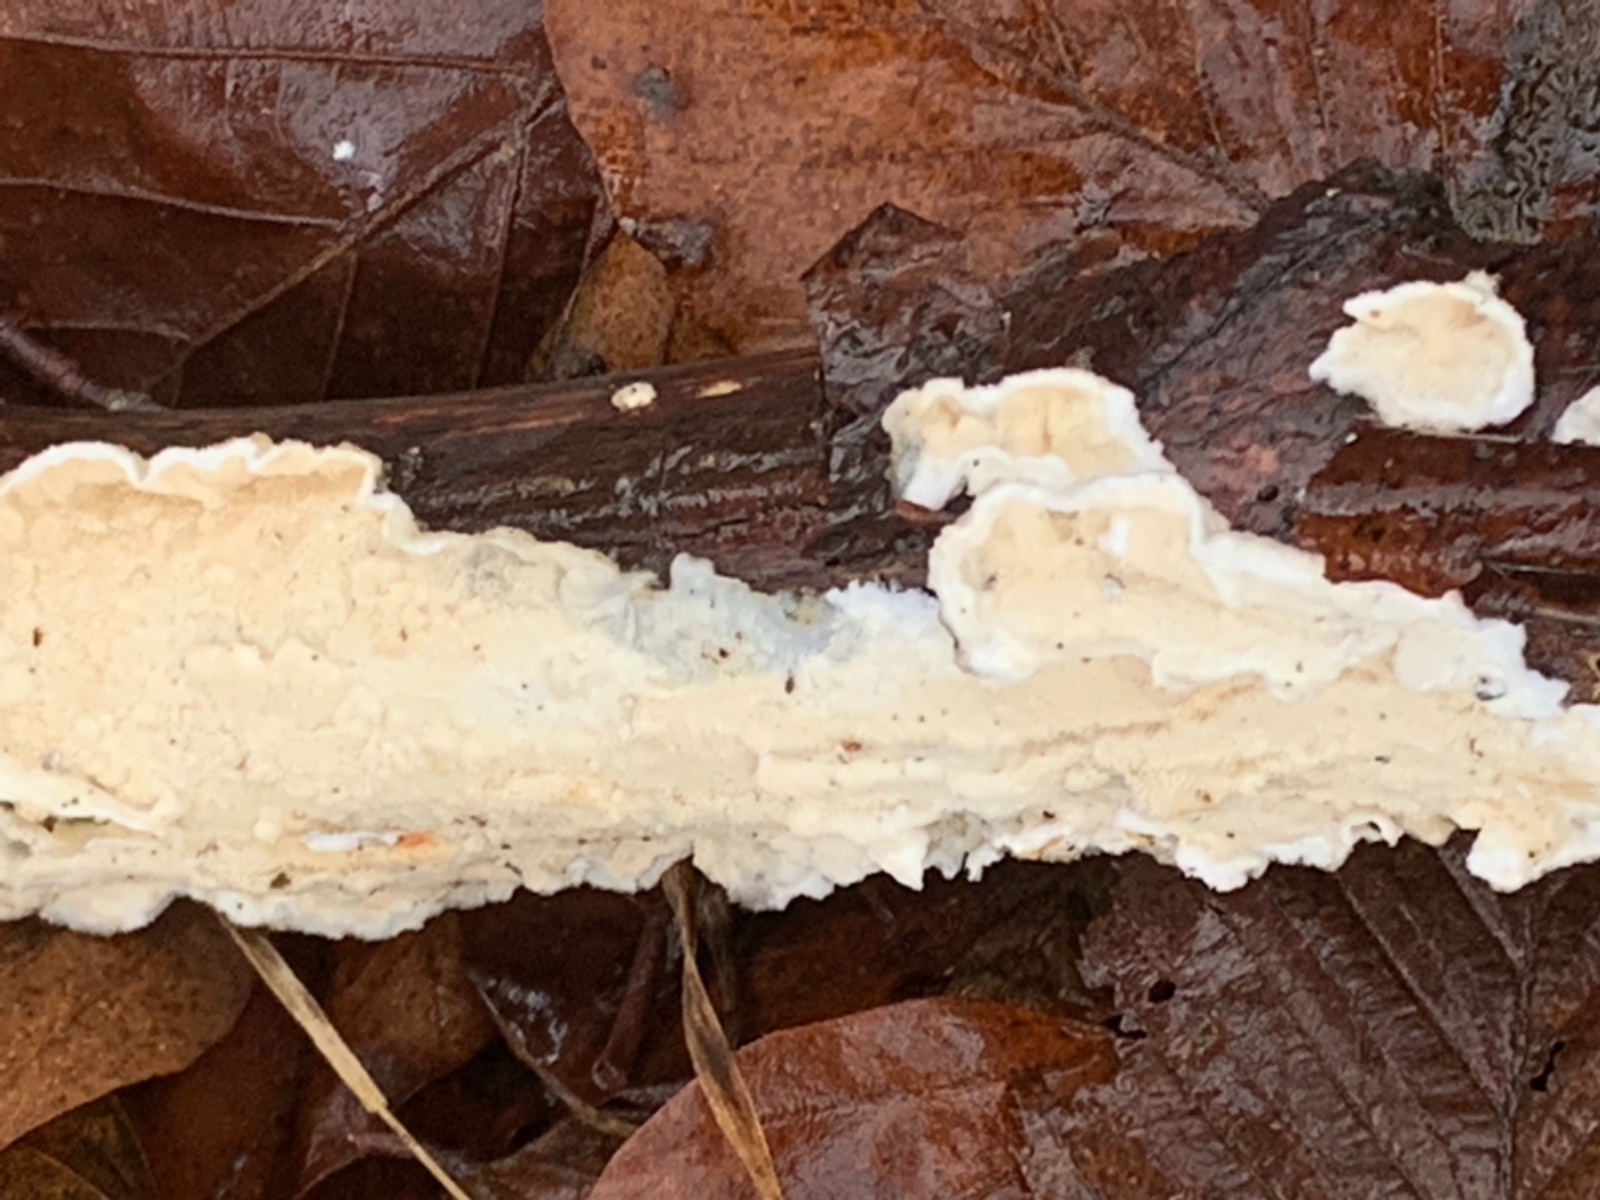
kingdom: Fungi
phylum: Basidiomycota
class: Agaricomycetes
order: Polyporales
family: Irpicaceae
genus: Byssomerulius
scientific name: Byssomerulius corium
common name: læder-åresvamp
